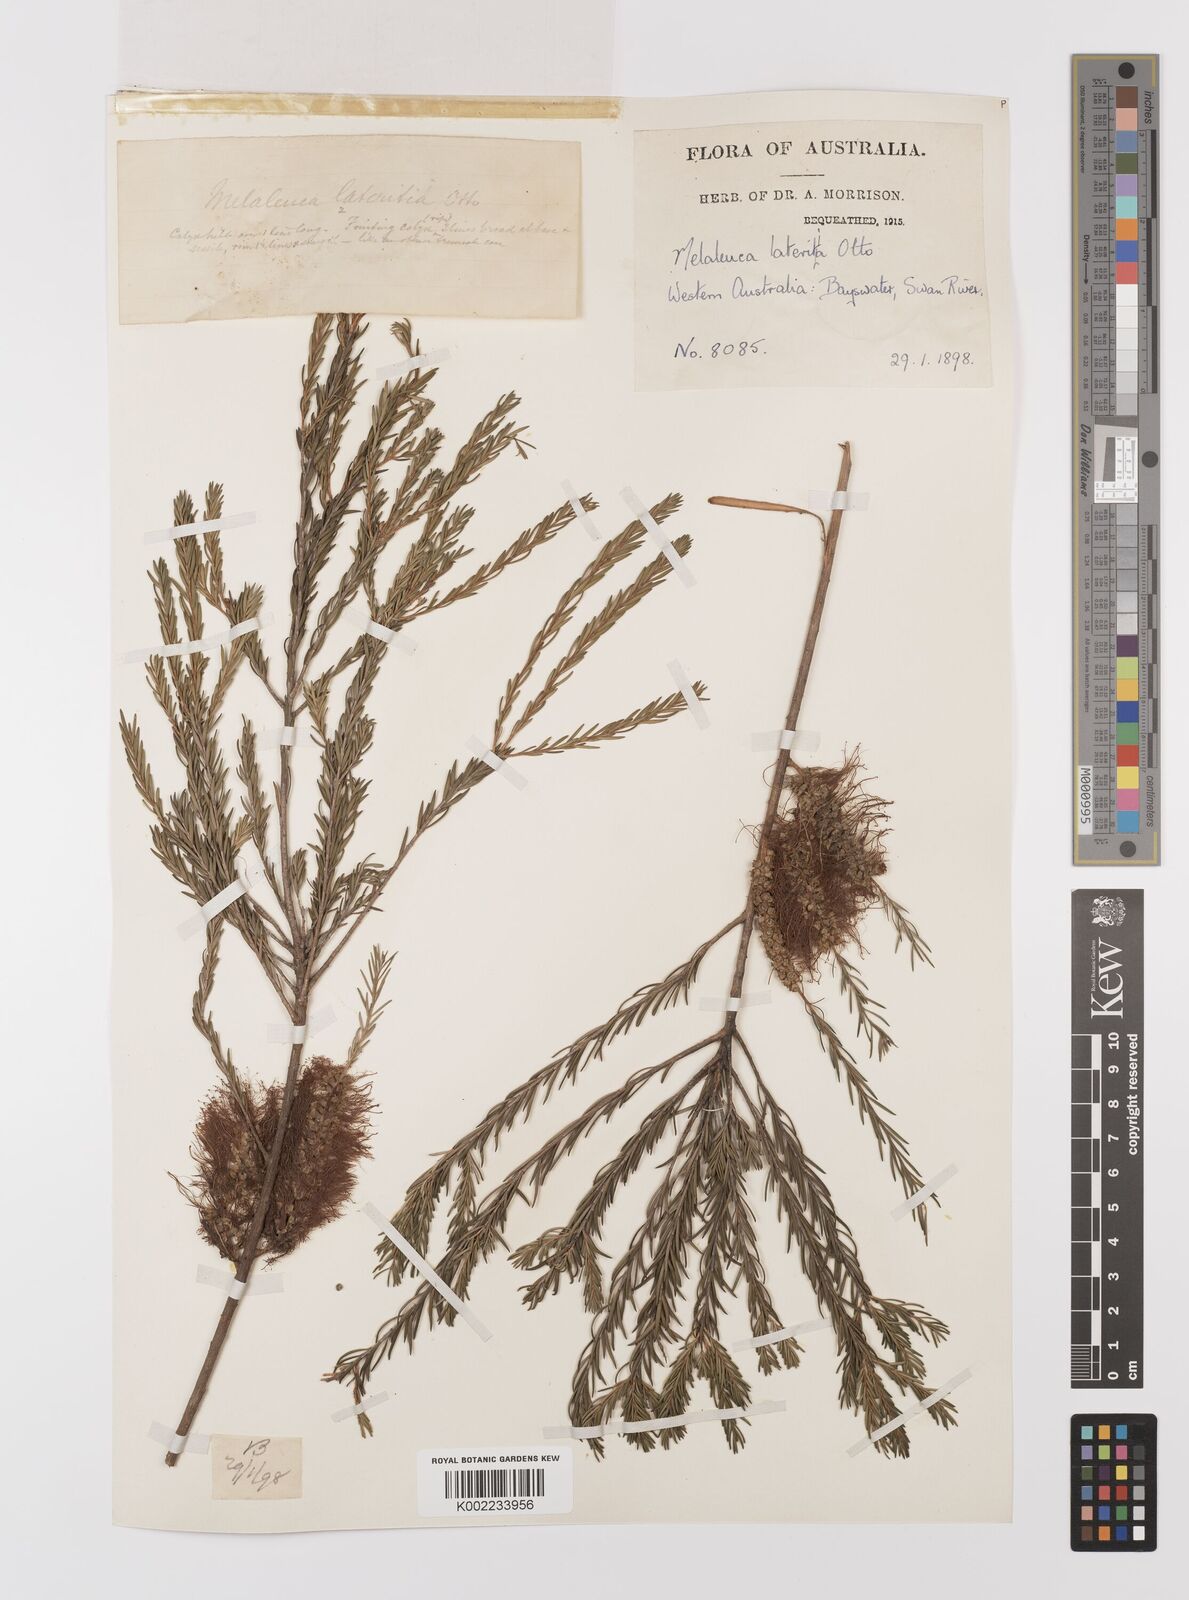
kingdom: Plantae
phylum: Tracheophyta
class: Magnoliopsida
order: Myrtales
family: Myrtaceae
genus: Melaleuca
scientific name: Melaleuca lateritia
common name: Robin red-breast
